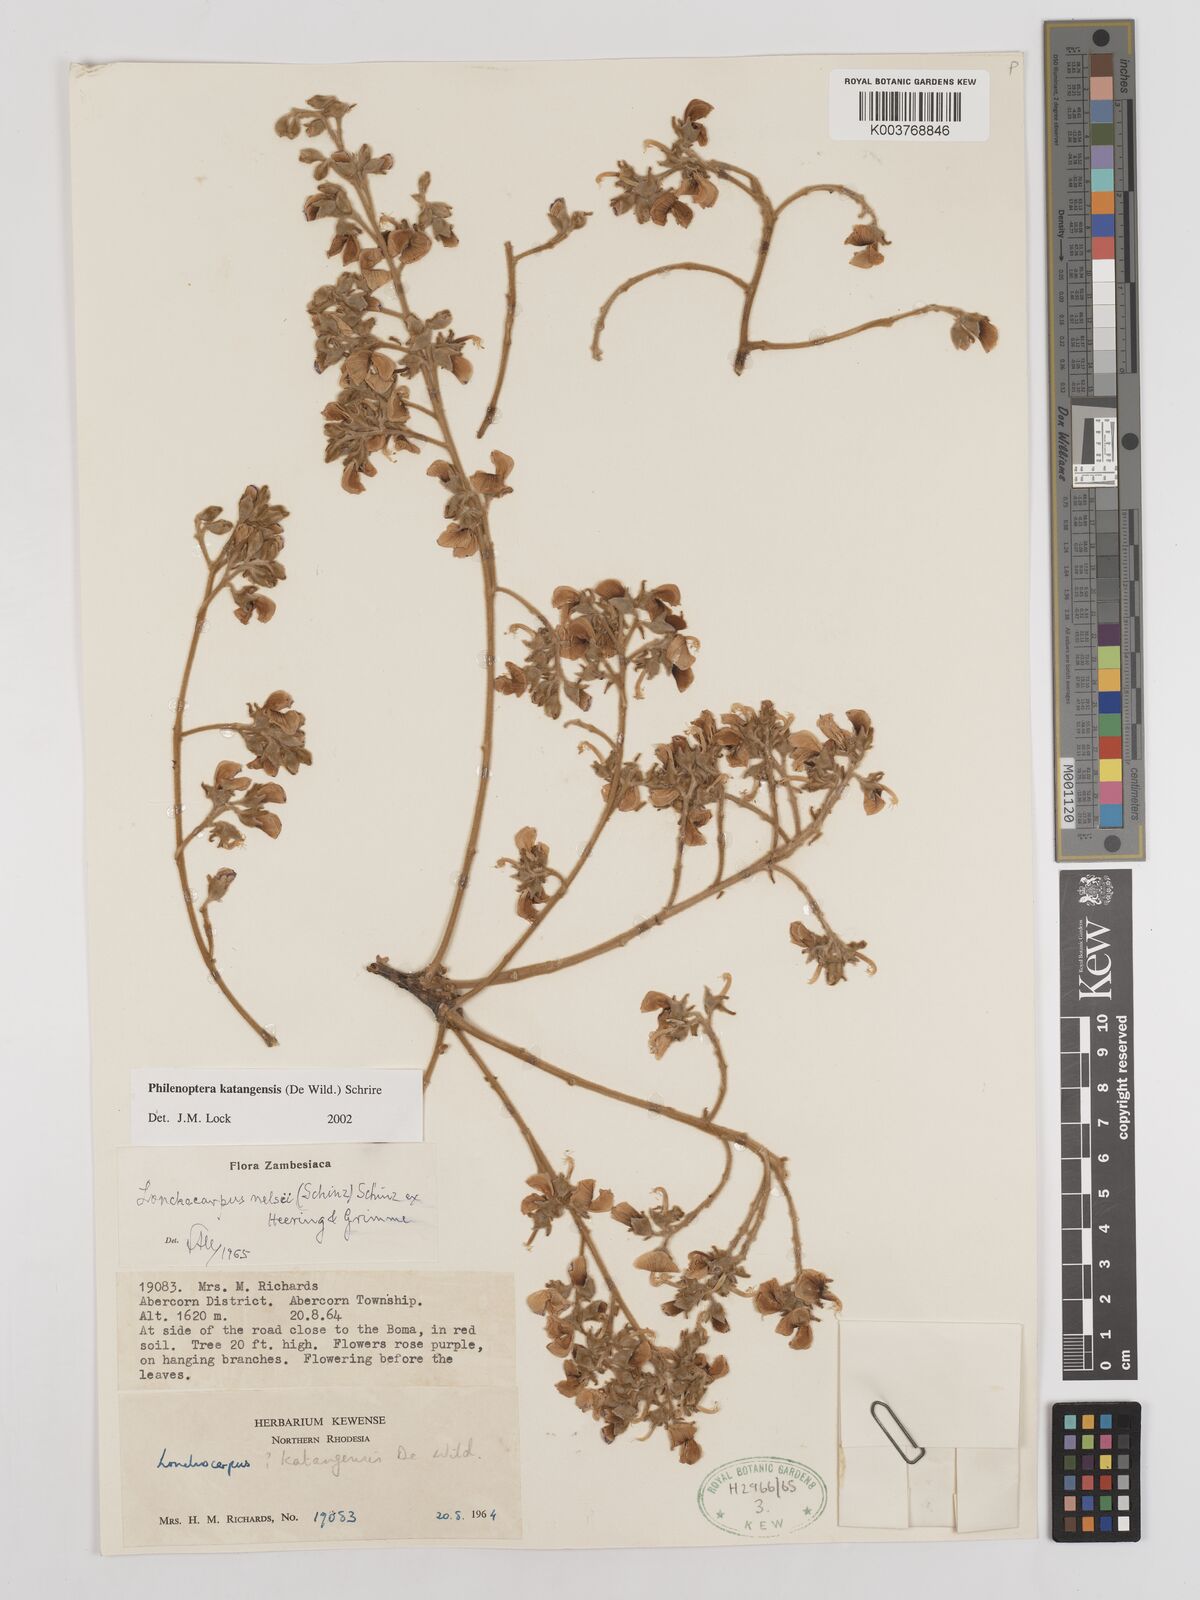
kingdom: Plantae
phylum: Tracheophyta
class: Magnoliopsida
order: Fabales
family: Fabaceae
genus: Philenoptera
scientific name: Philenoptera katangensis
